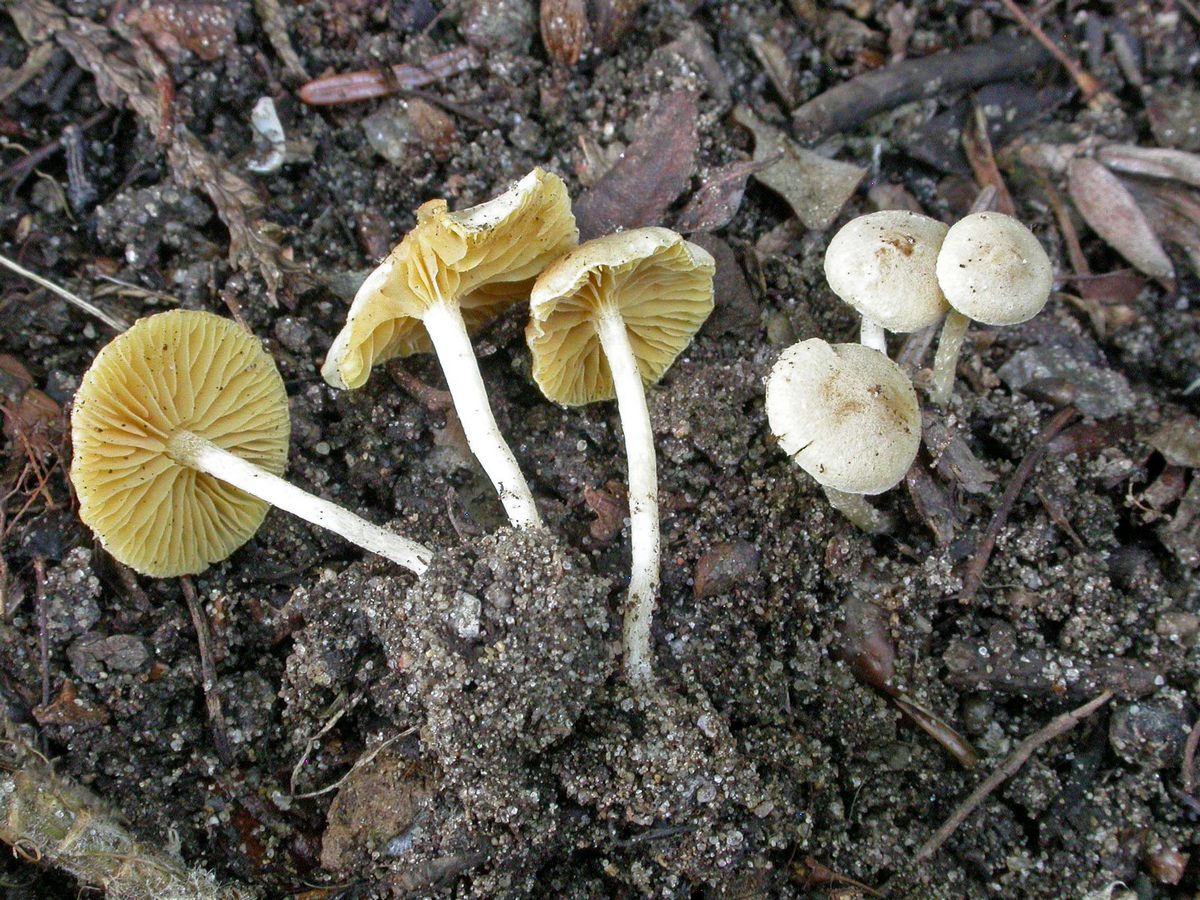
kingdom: Fungi
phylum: Basidiomycota
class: Agaricomycetes
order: Agaricales
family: Tubariaceae
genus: Tubaria
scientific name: Tubaria dispersa
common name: tjørne-fnughat
